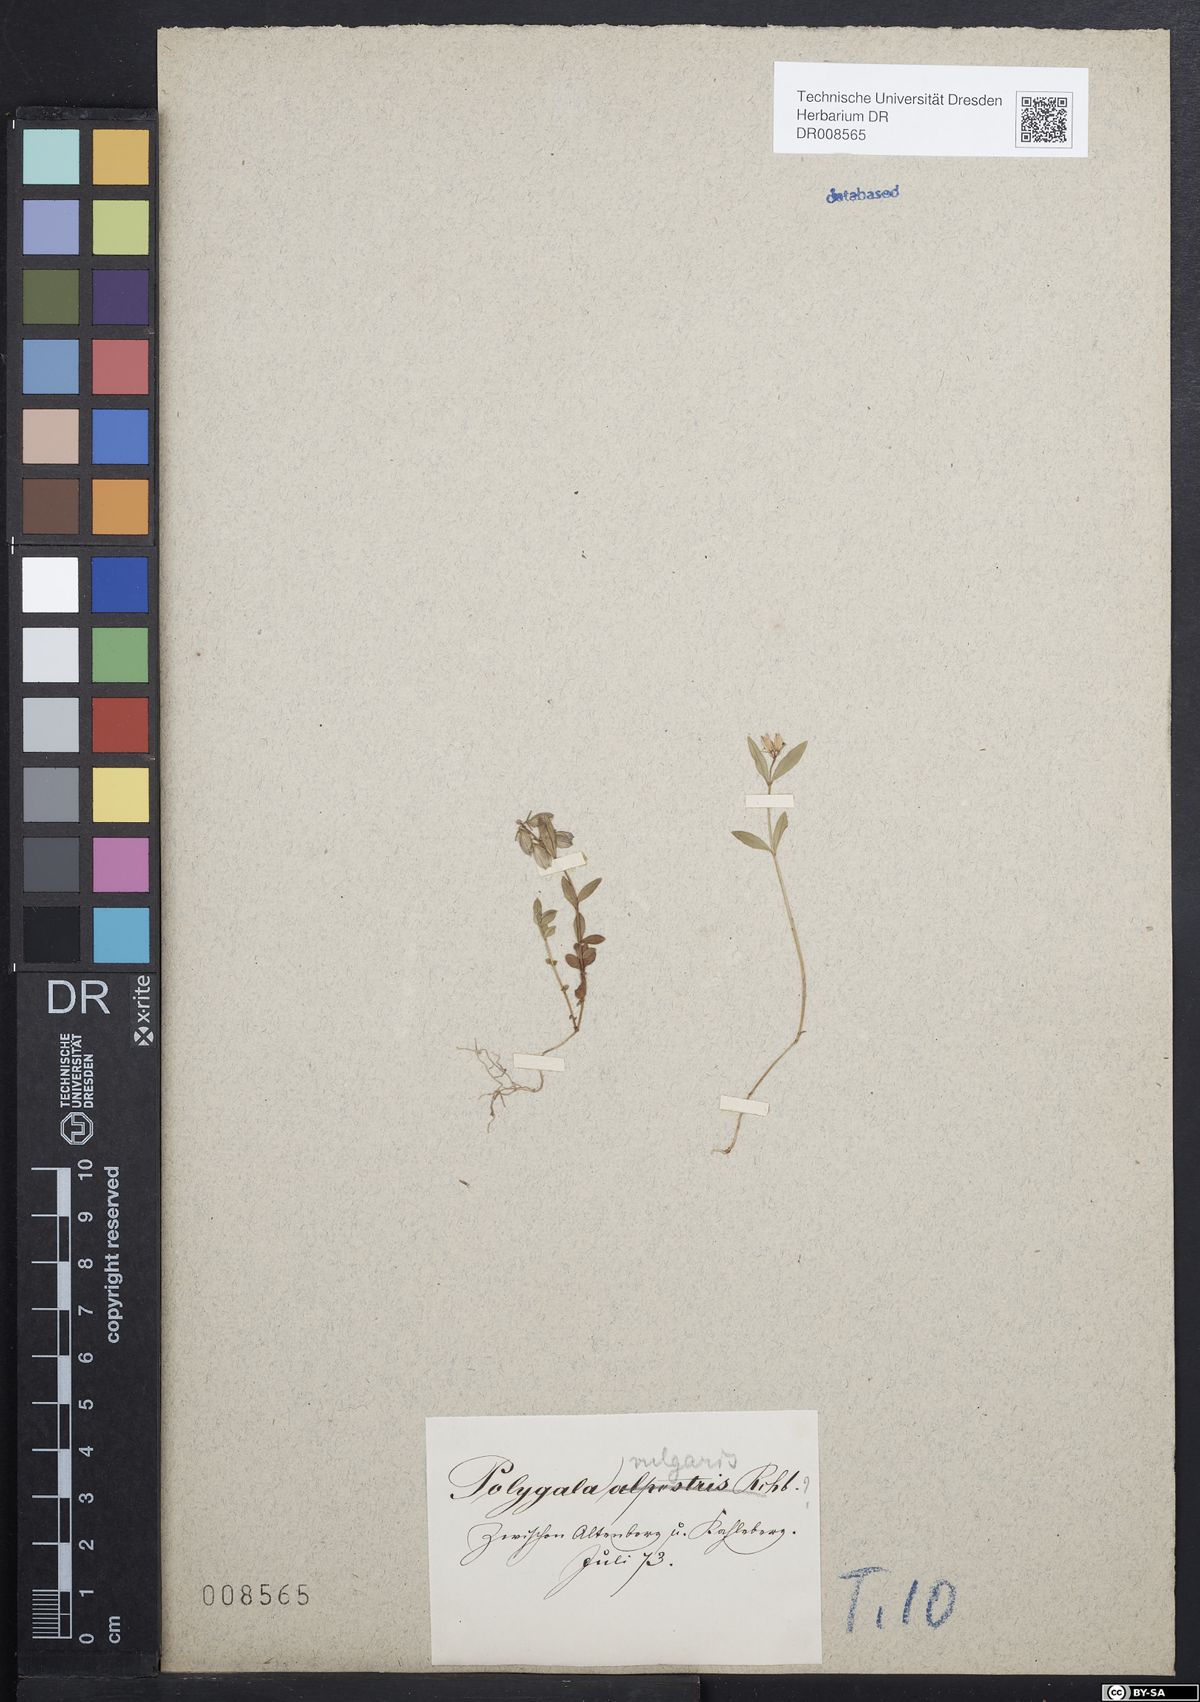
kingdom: Plantae
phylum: Tracheophyta
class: Magnoliopsida
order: Fabales
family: Polygalaceae
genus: Polygala
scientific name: Polygala vulgaris
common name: Common milkwort
